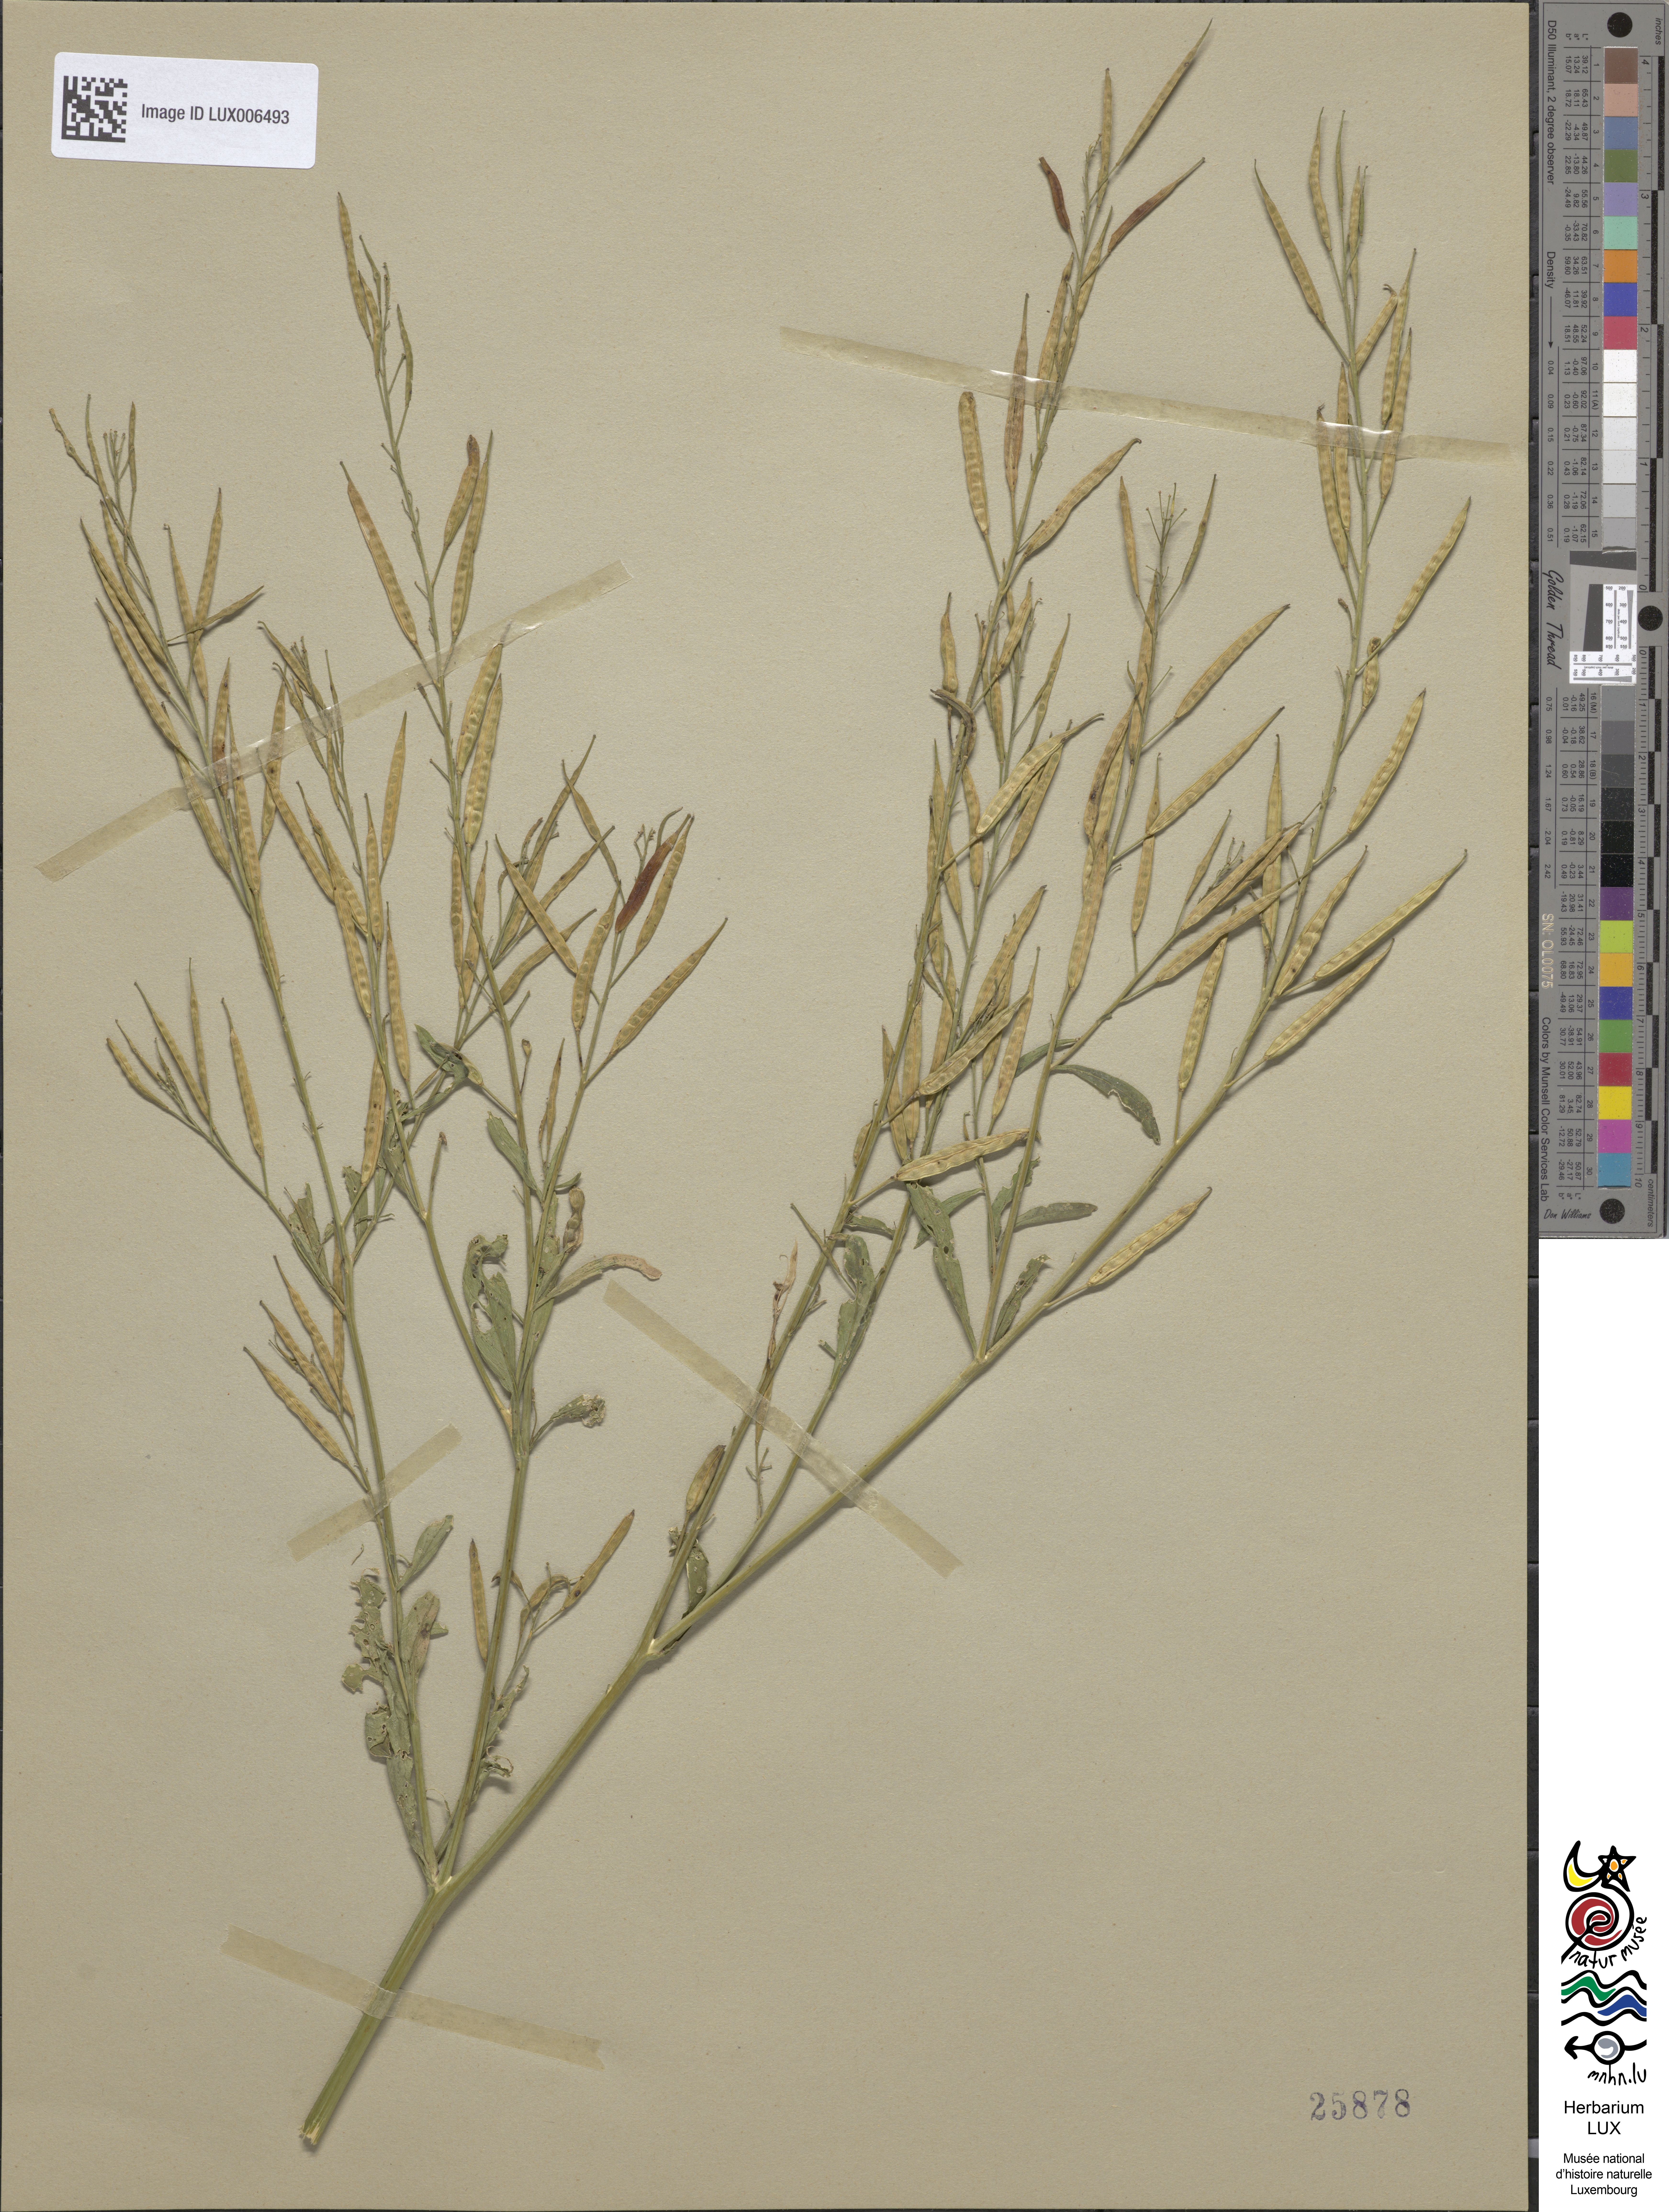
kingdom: Plantae
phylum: Tracheophyta
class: Magnoliopsida
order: Brassicales
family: Brassicaceae
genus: Brassica
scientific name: Brassica juncea
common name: Brown mustard
